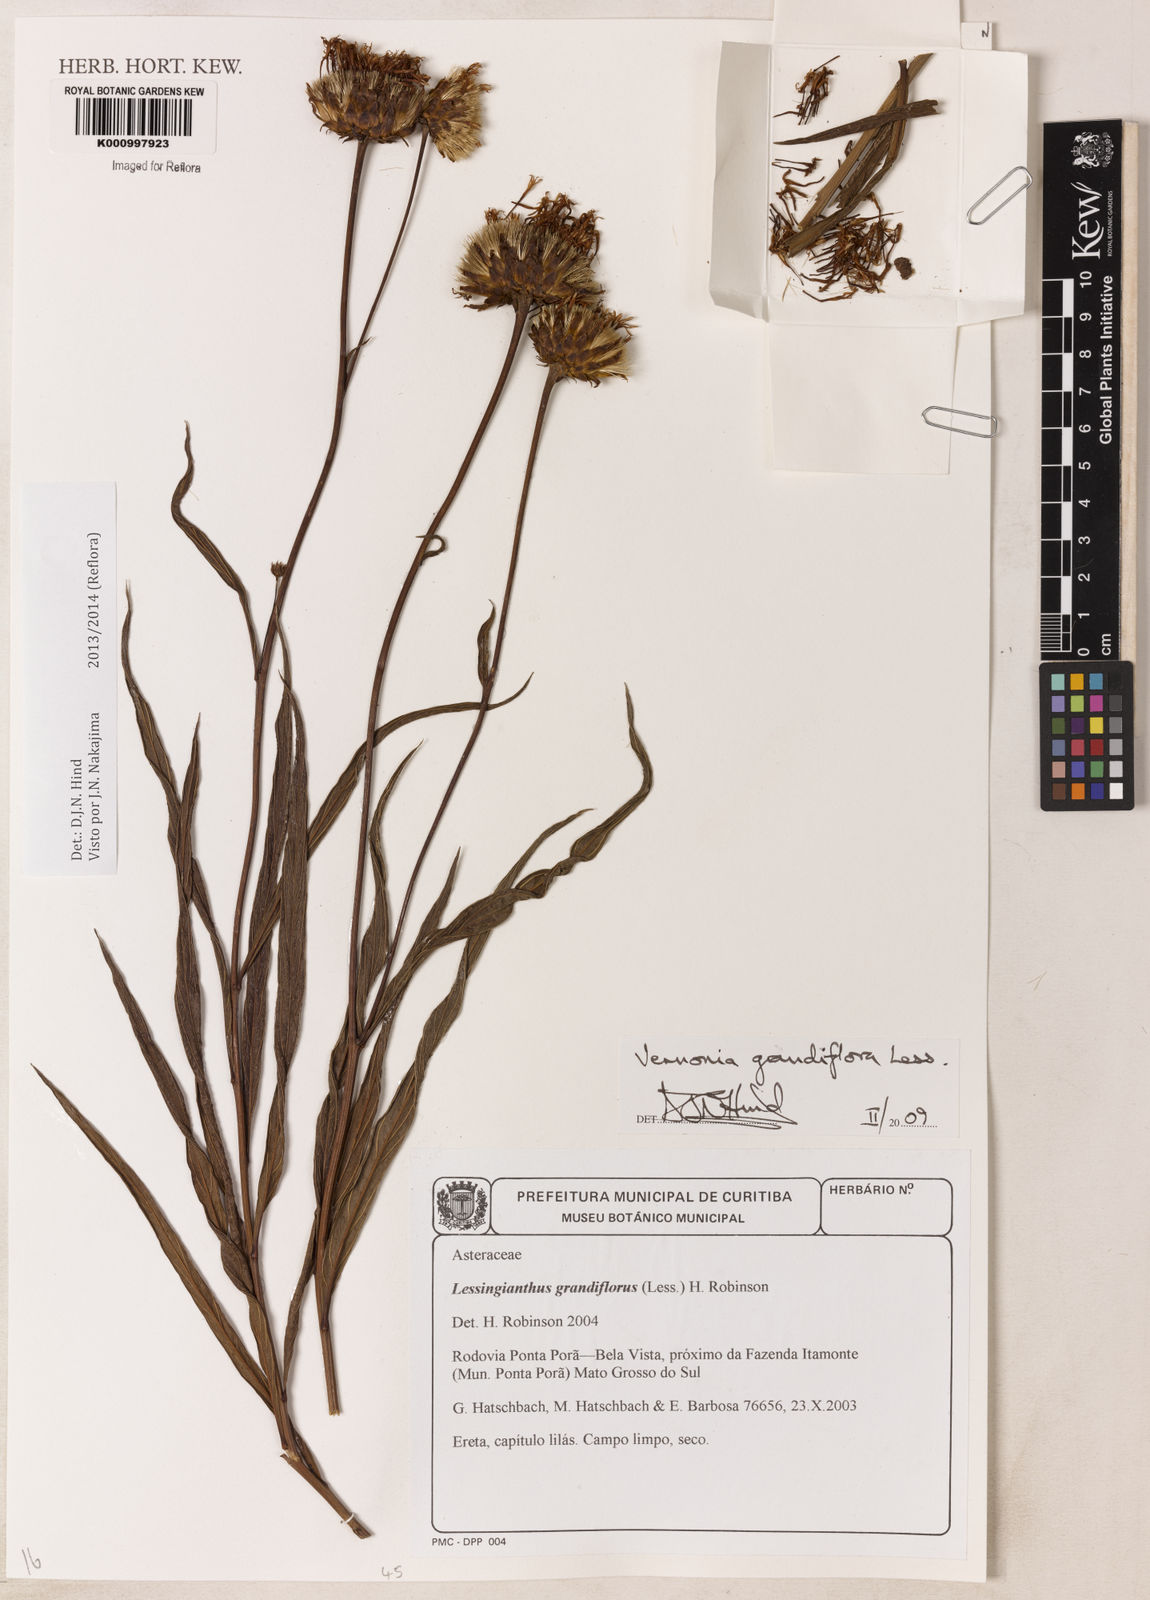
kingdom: Plantae
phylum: Tracheophyta
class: Magnoliopsida
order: Asterales
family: Asteraceae
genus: Lessingianthus
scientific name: Lessingianthus grandiflorus
